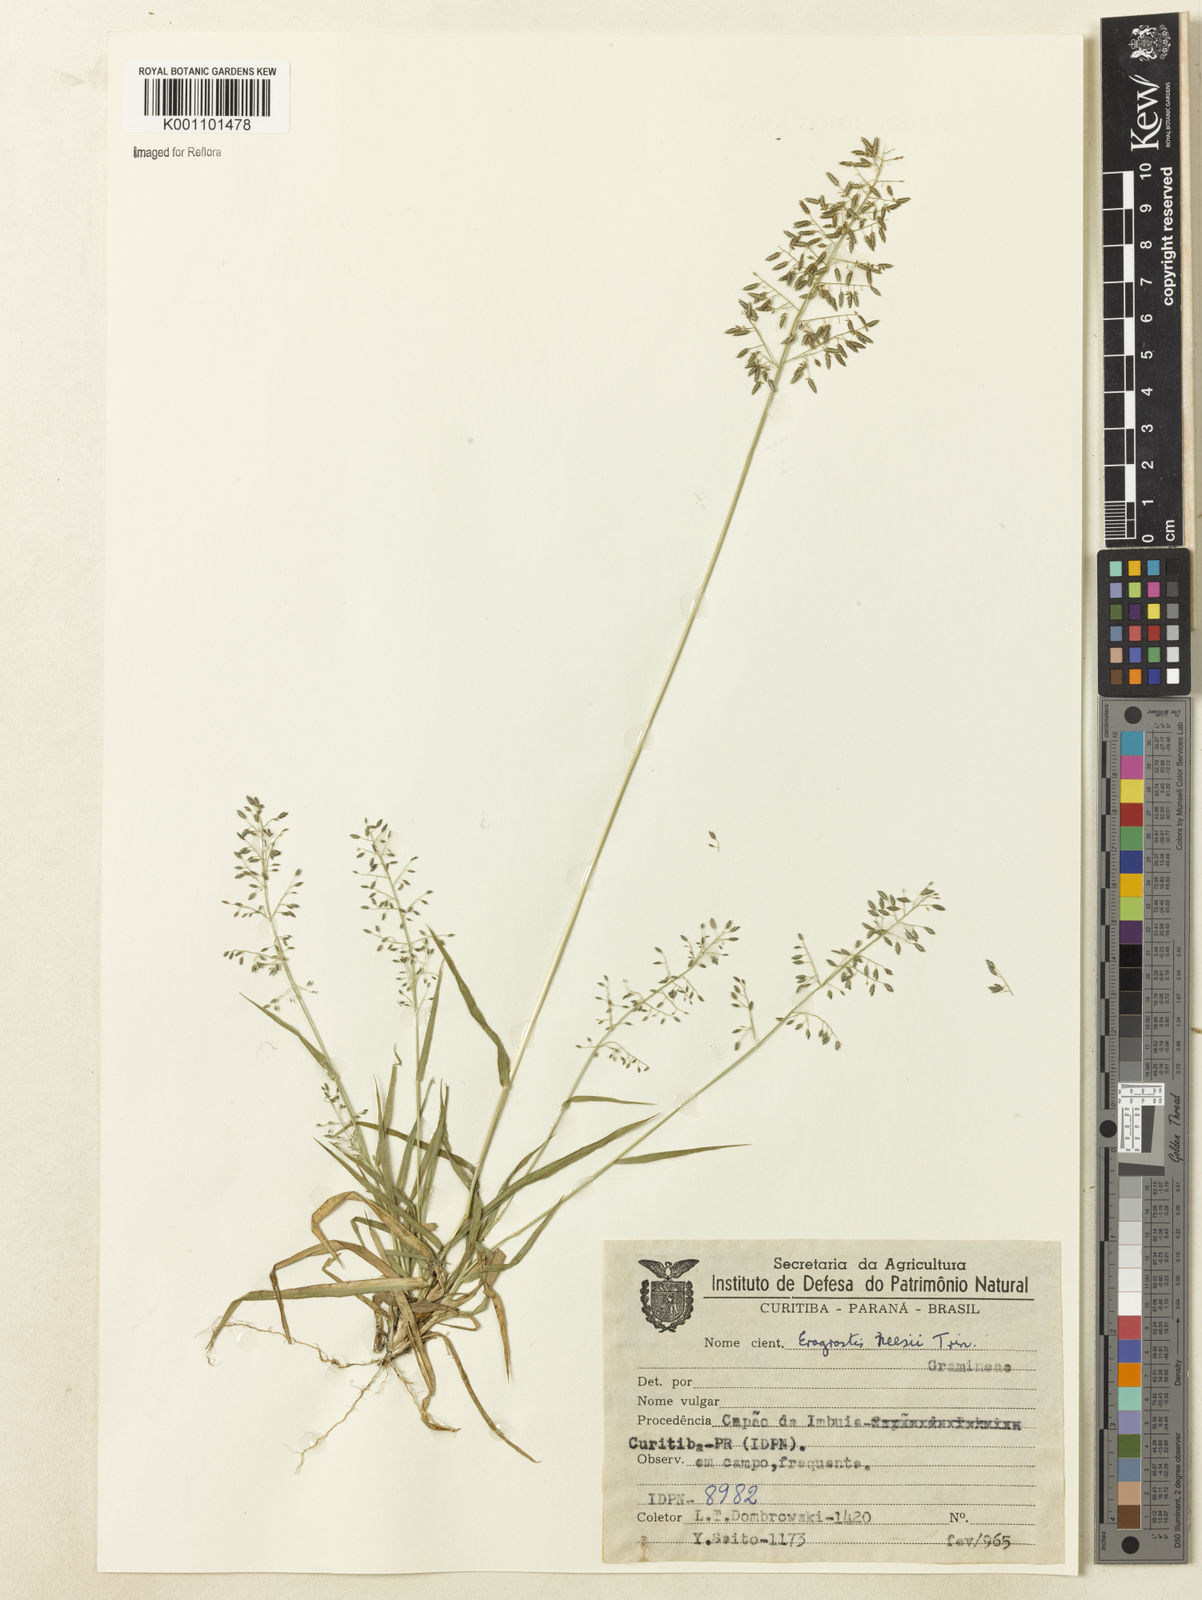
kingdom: Plantae
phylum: Tracheophyta
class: Liliopsida
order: Poales
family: Poaceae
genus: Eragrostis
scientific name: Eragrostis neesii
